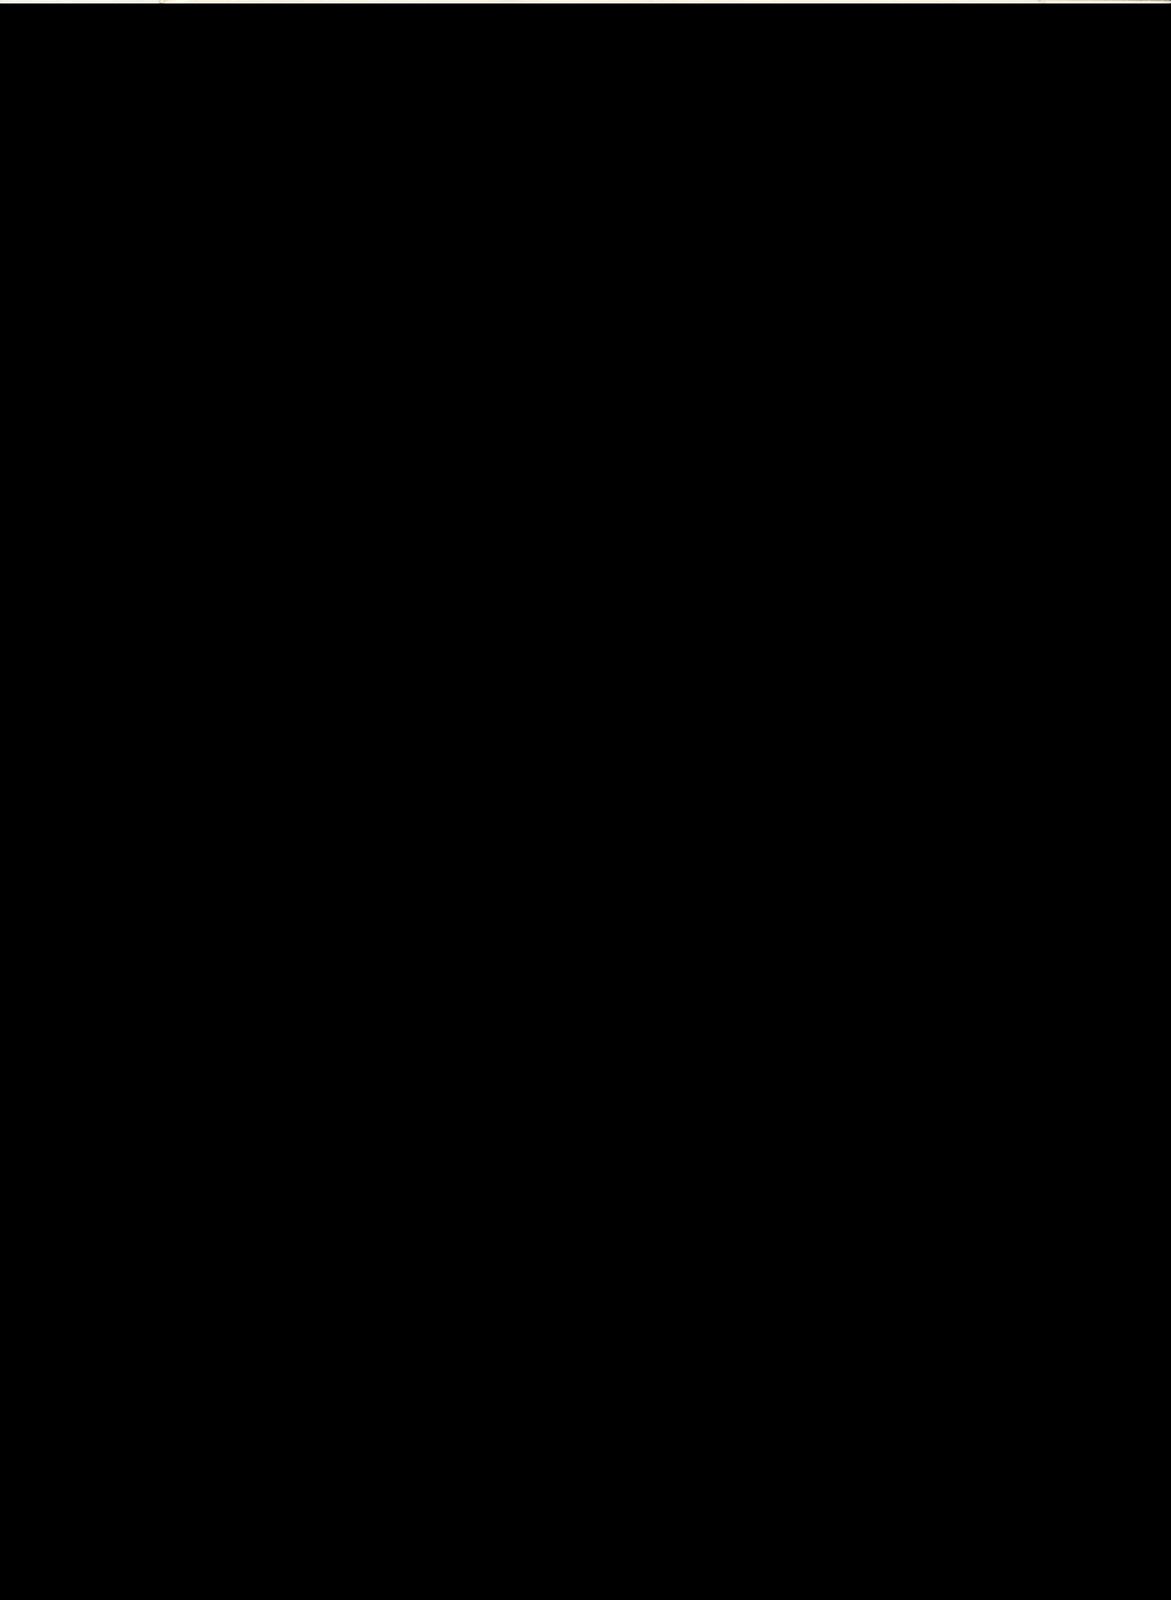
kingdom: Plantae
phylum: Tracheophyta
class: Magnoliopsida
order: Ranunculales
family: Papaveraceae
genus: Roemeria
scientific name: Roemeria hybrida
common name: Violet horned-poppy
